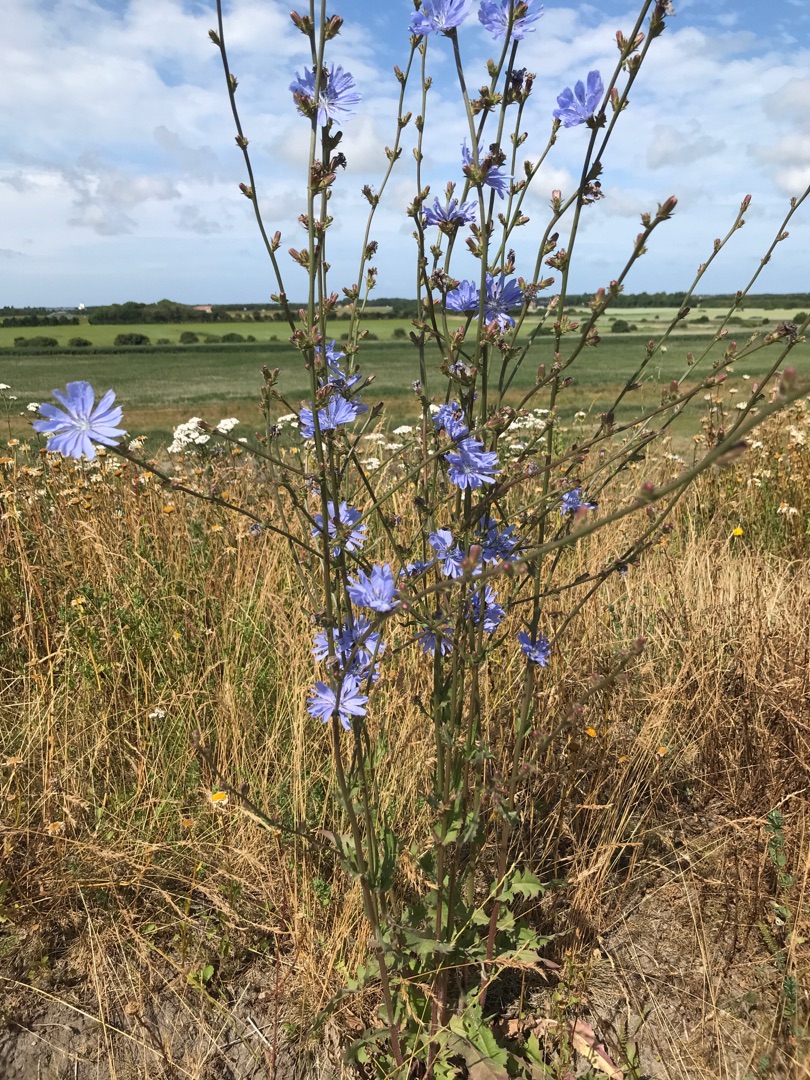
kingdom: Plantae
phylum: Tracheophyta
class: Magnoliopsida
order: Asterales
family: Asteraceae
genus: Cichorium
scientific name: Cichorium intybus
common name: Cikorie
